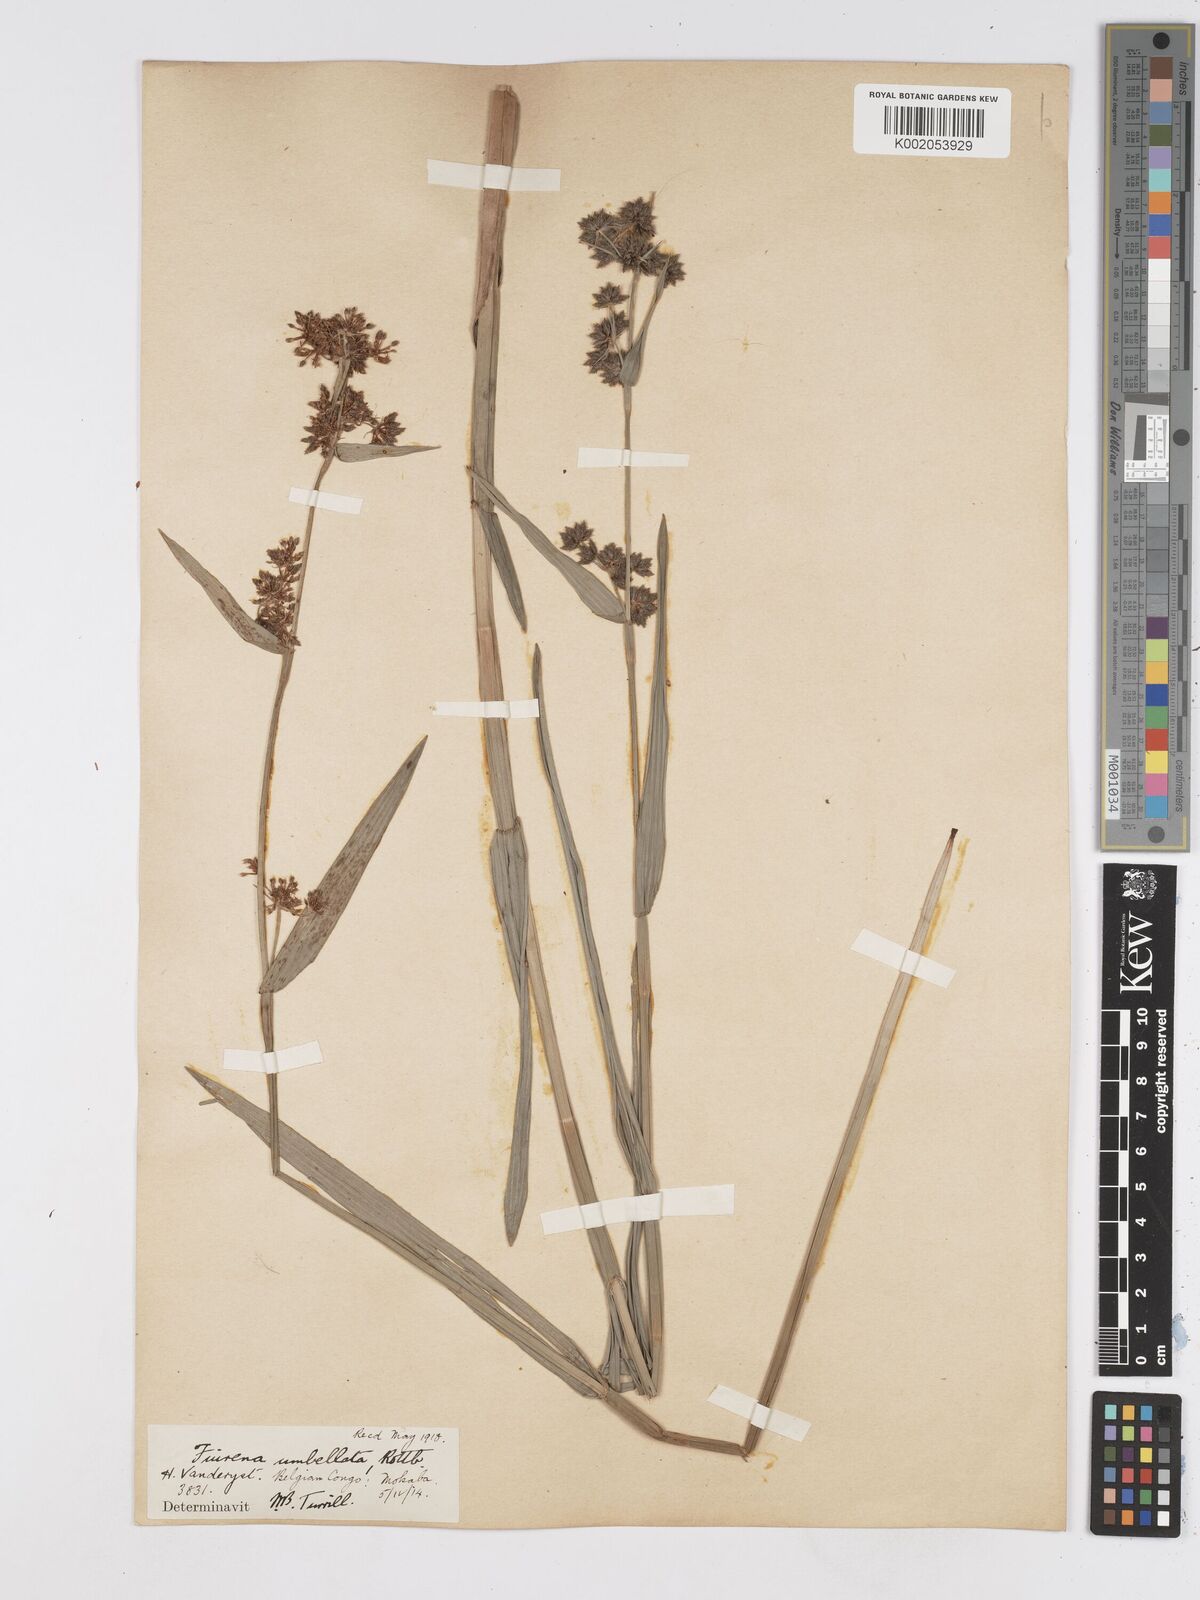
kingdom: Plantae
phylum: Tracheophyta
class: Liliopsida
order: Poales
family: Cyperaceae
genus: Fuirena
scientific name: Fuirena umbellata
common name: Yefen
